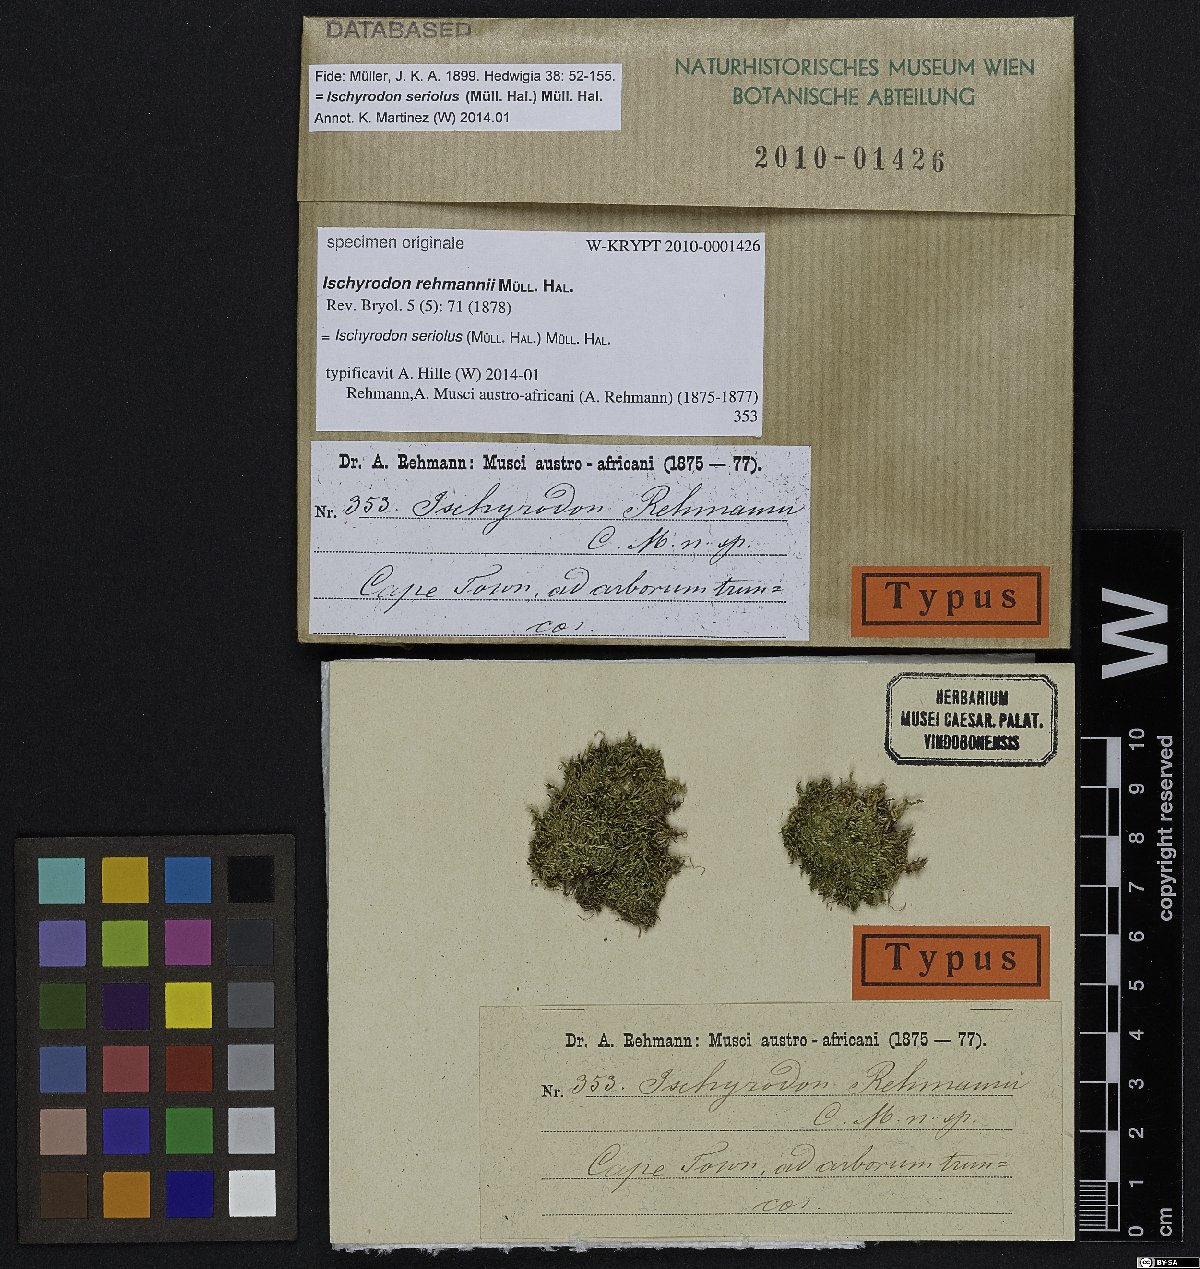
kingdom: Plantae
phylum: Bryophyta
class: Bryopsida
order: Hypnales
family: Fabroniaceae
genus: Ischyrodon
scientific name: Ischyrodon
